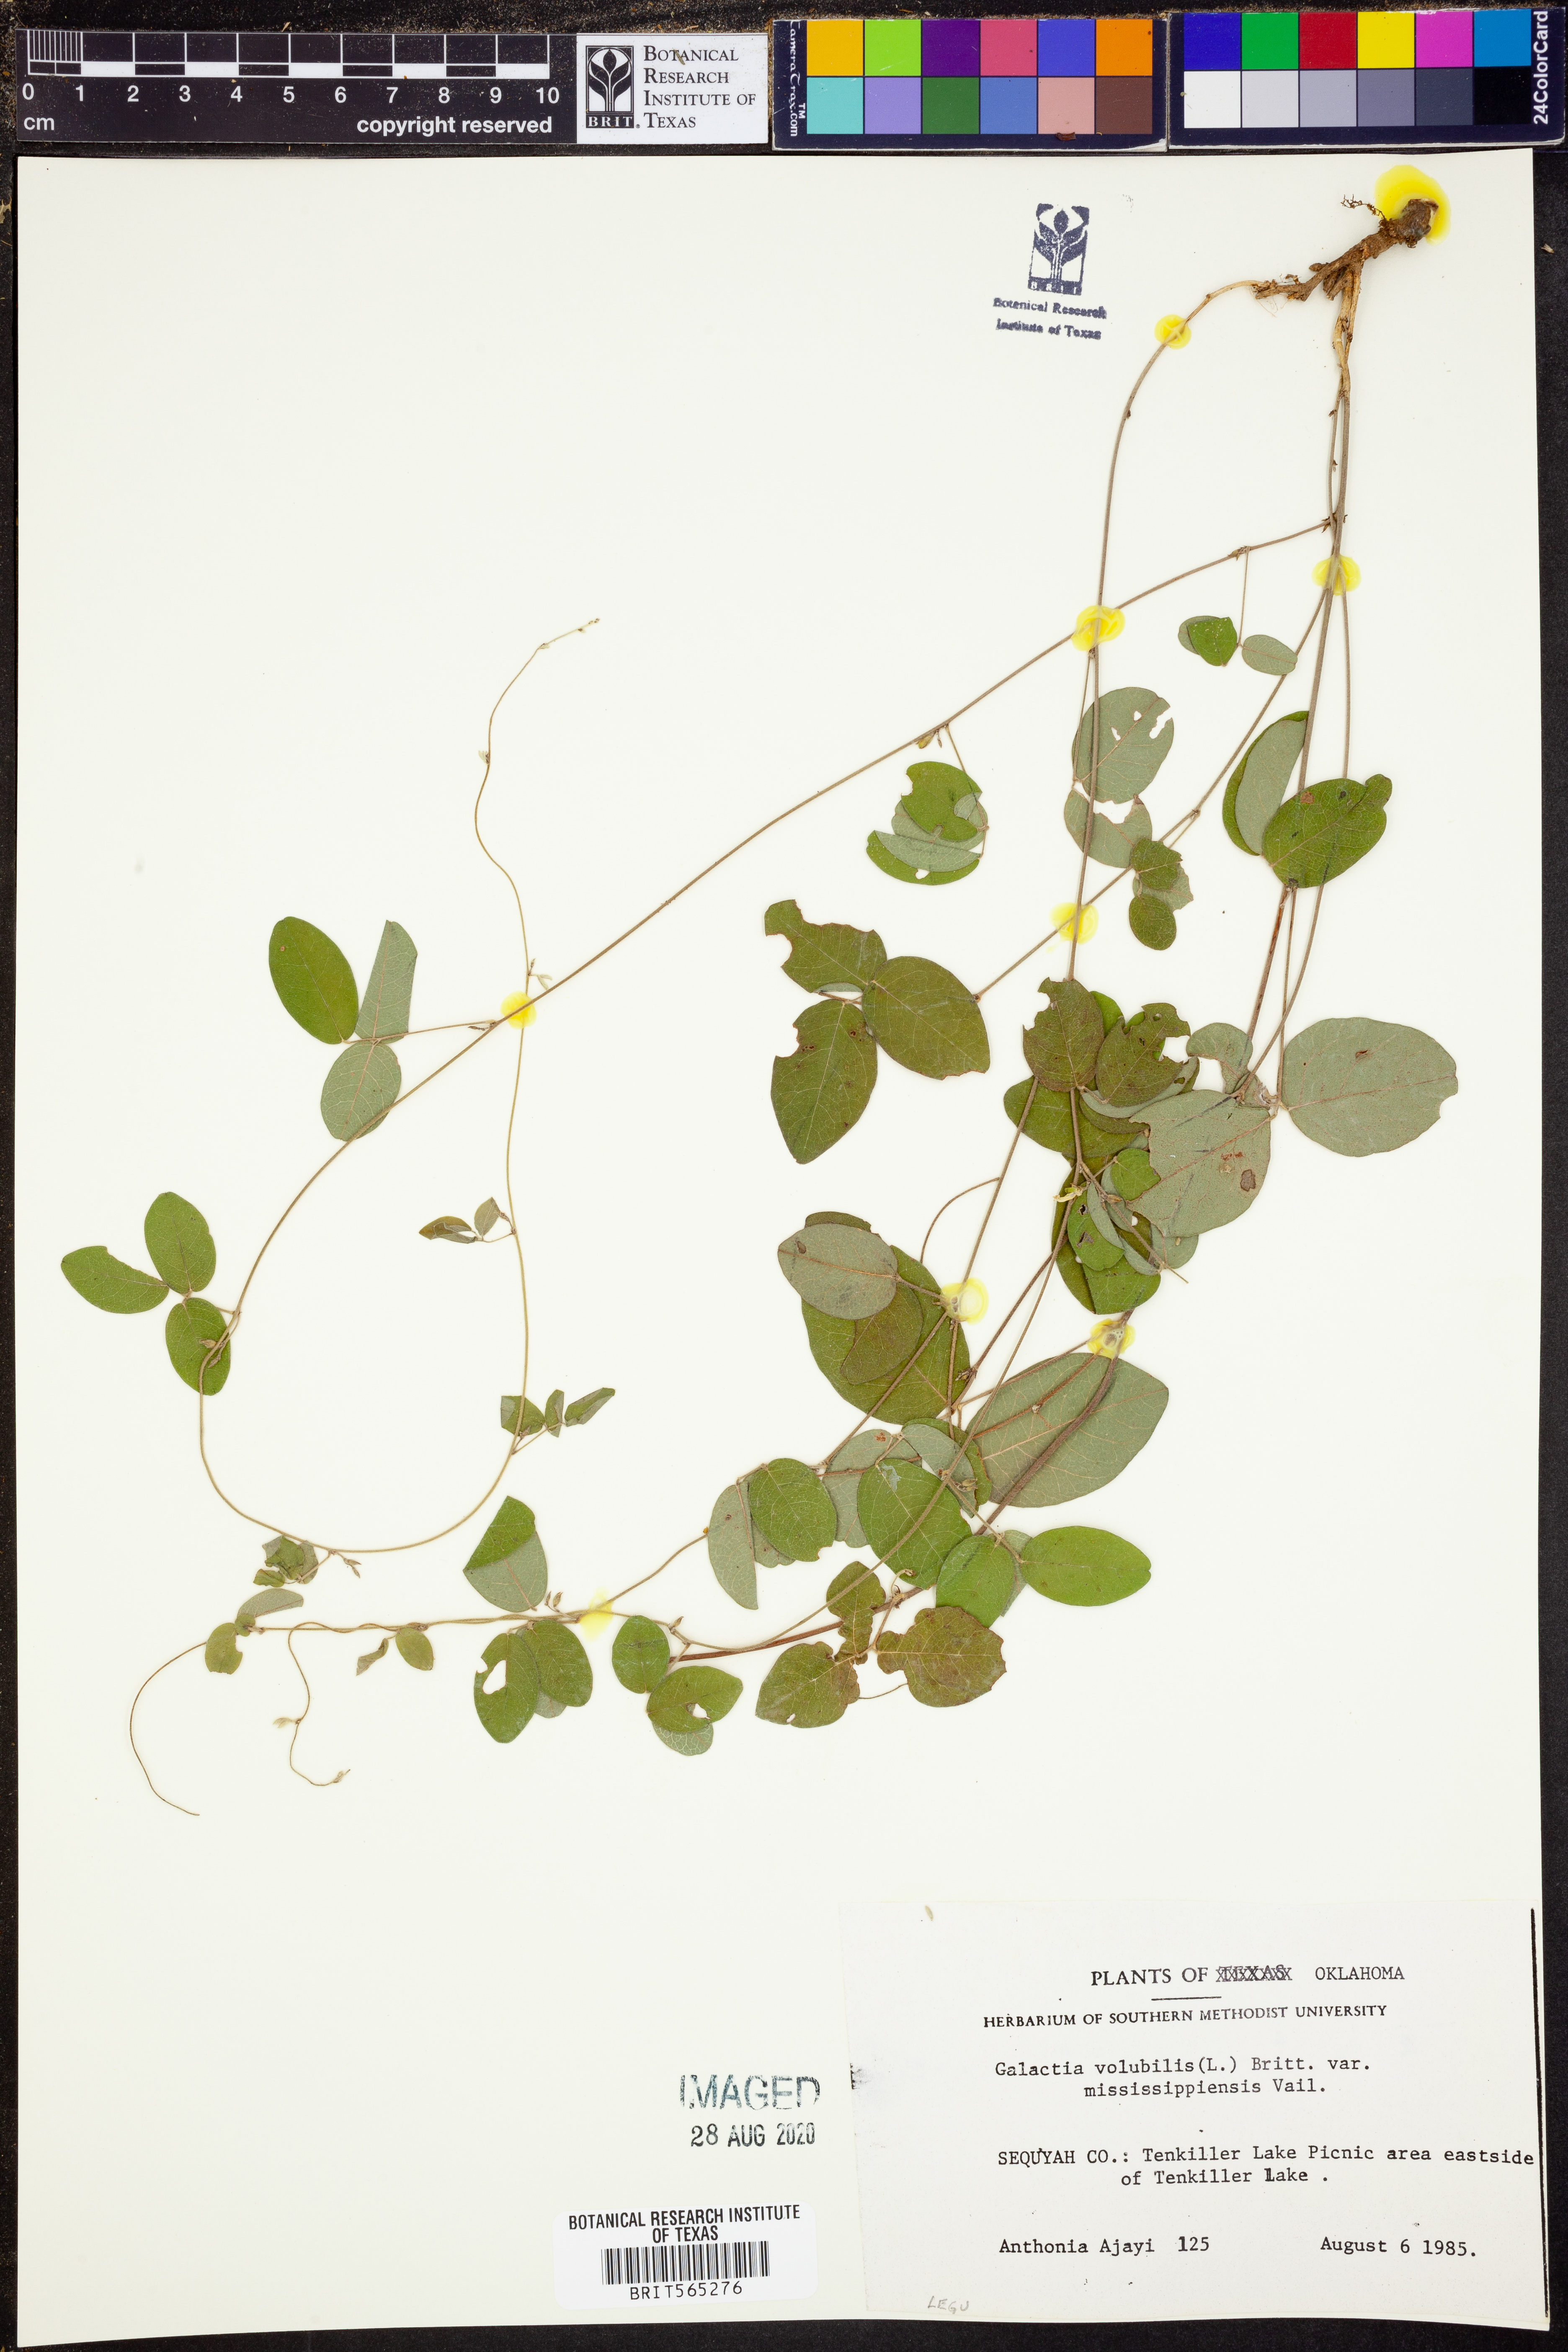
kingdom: Plantae
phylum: Tracheophyta
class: Magnoliopsida
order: Fabales
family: Fabaceae
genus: Galactia
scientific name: Galactia volubilis
